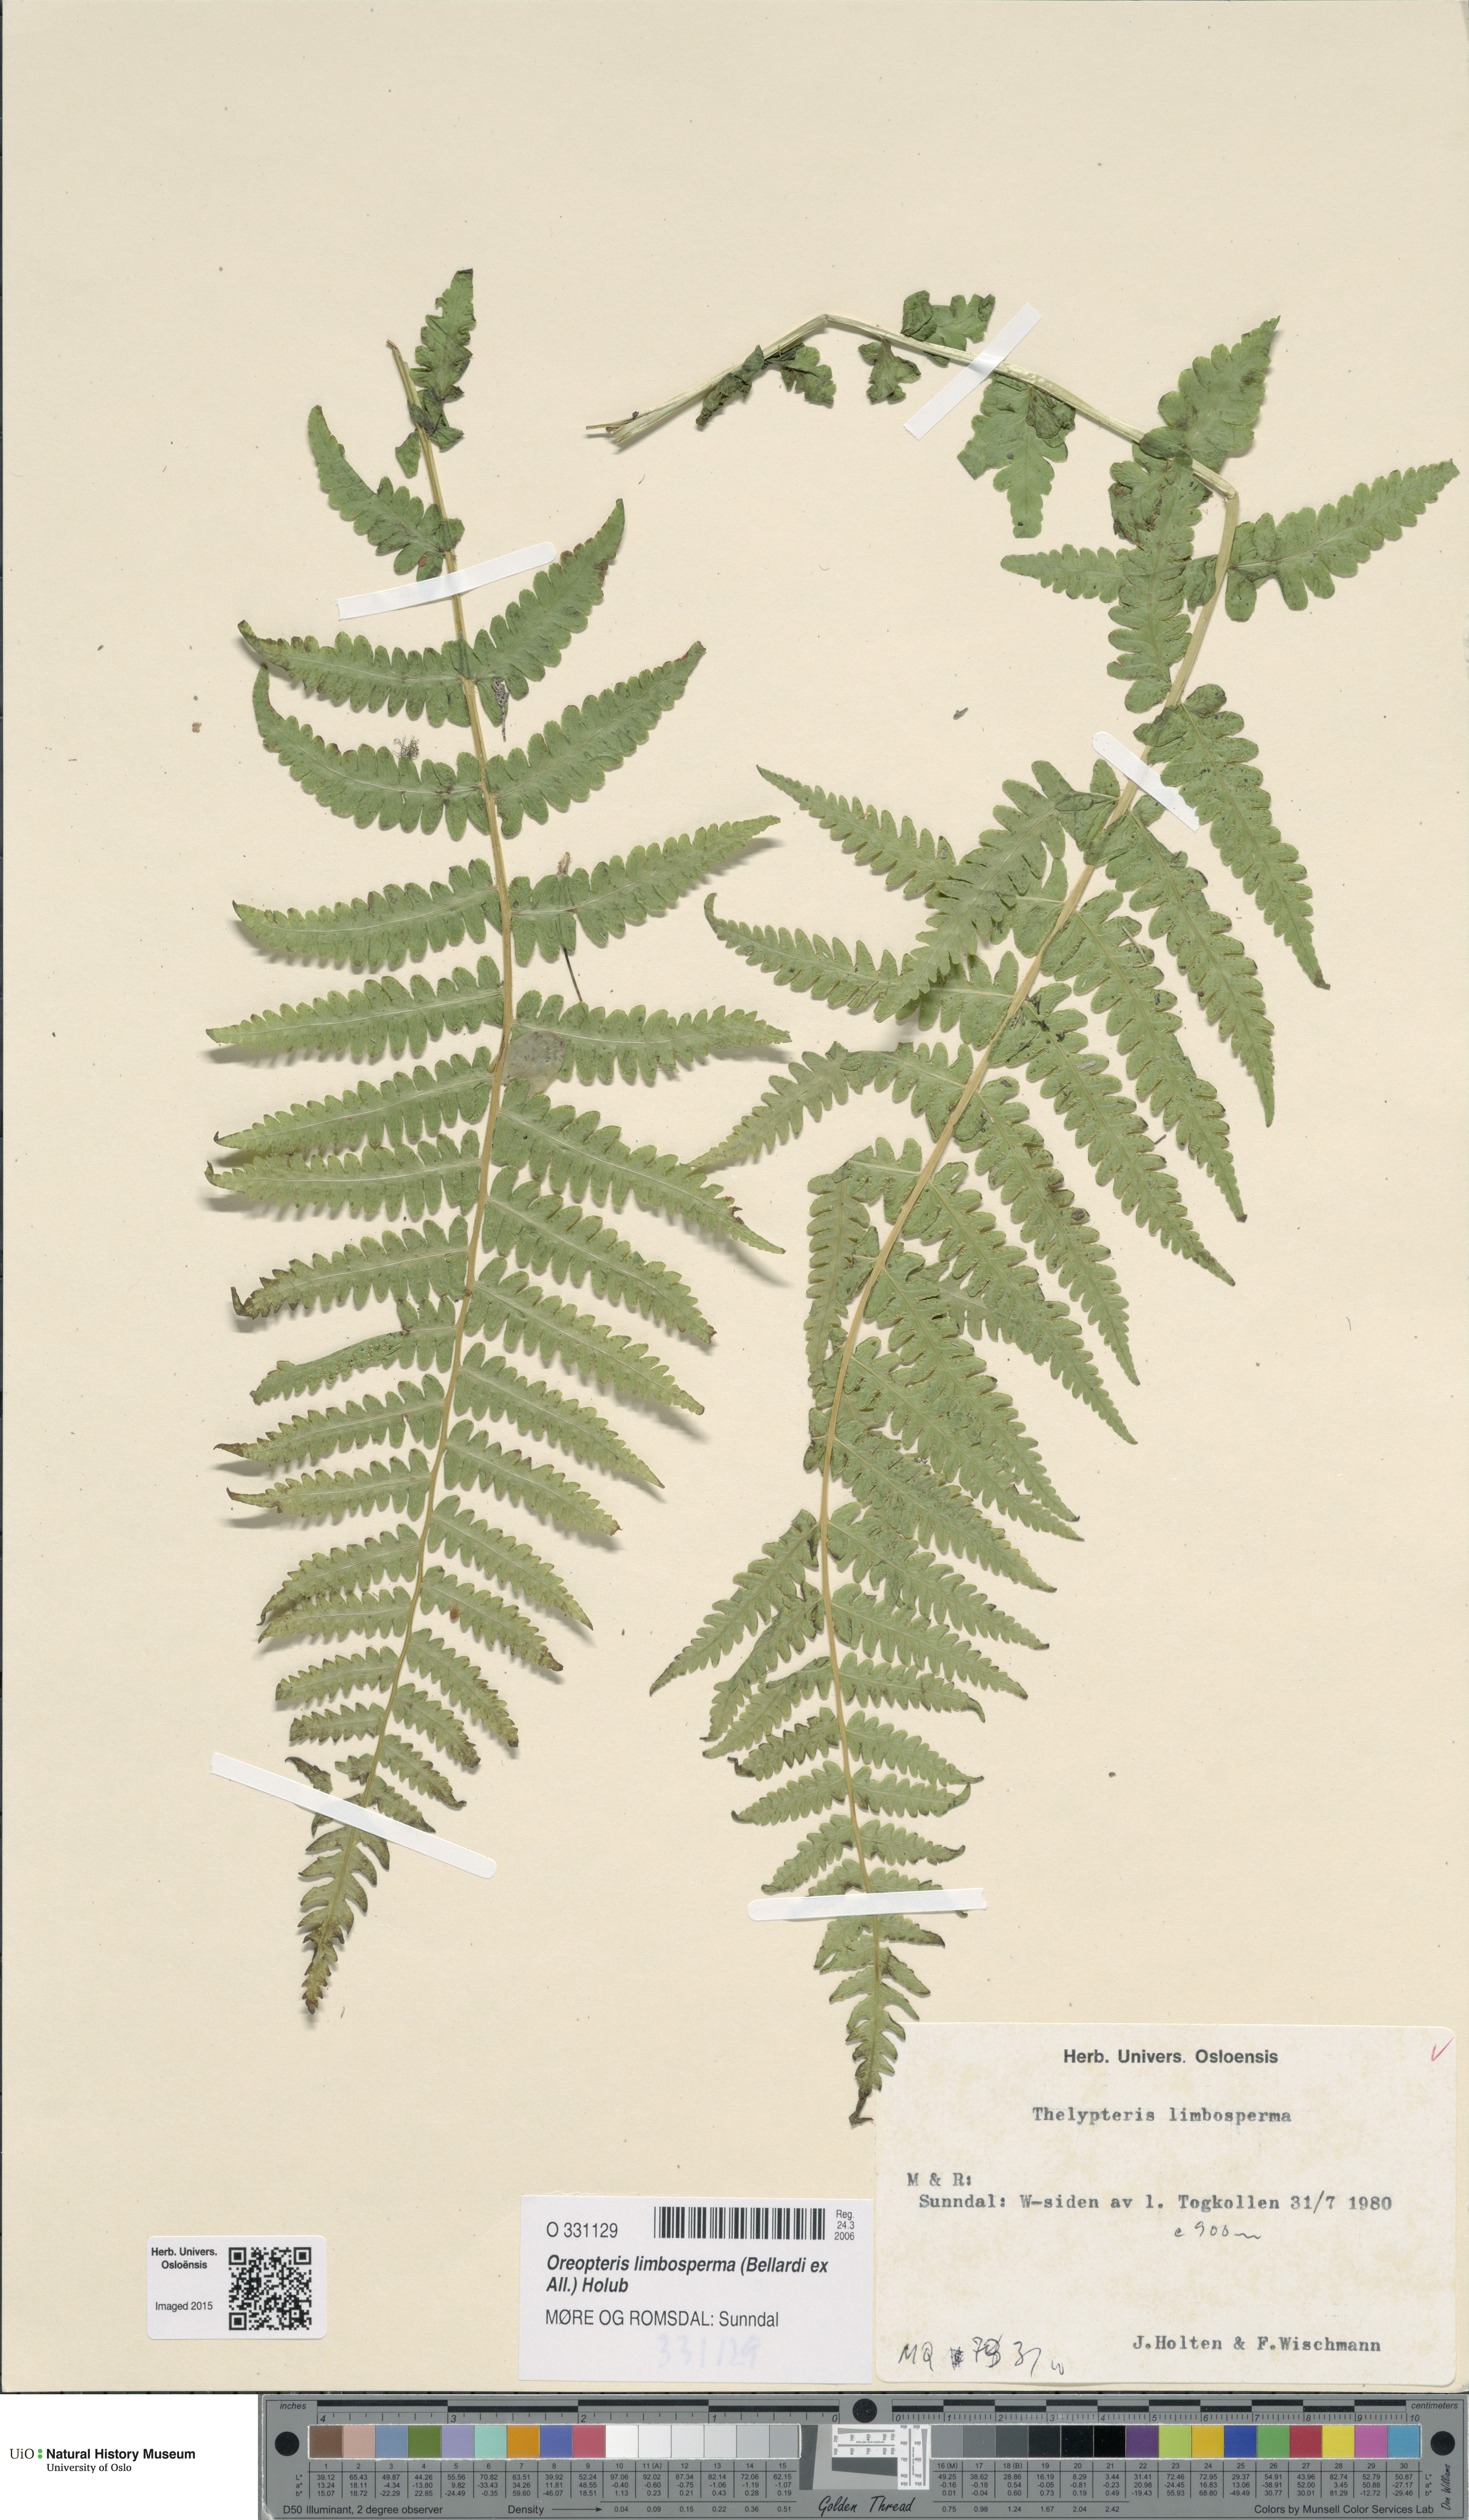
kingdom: Plantae
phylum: Tracheophyta
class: Polypodiopsida
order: Polypodiales
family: Thelypteridaceae
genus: Oreopteris
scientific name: Oreopteris limbosperma
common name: Lemon-scented fern
